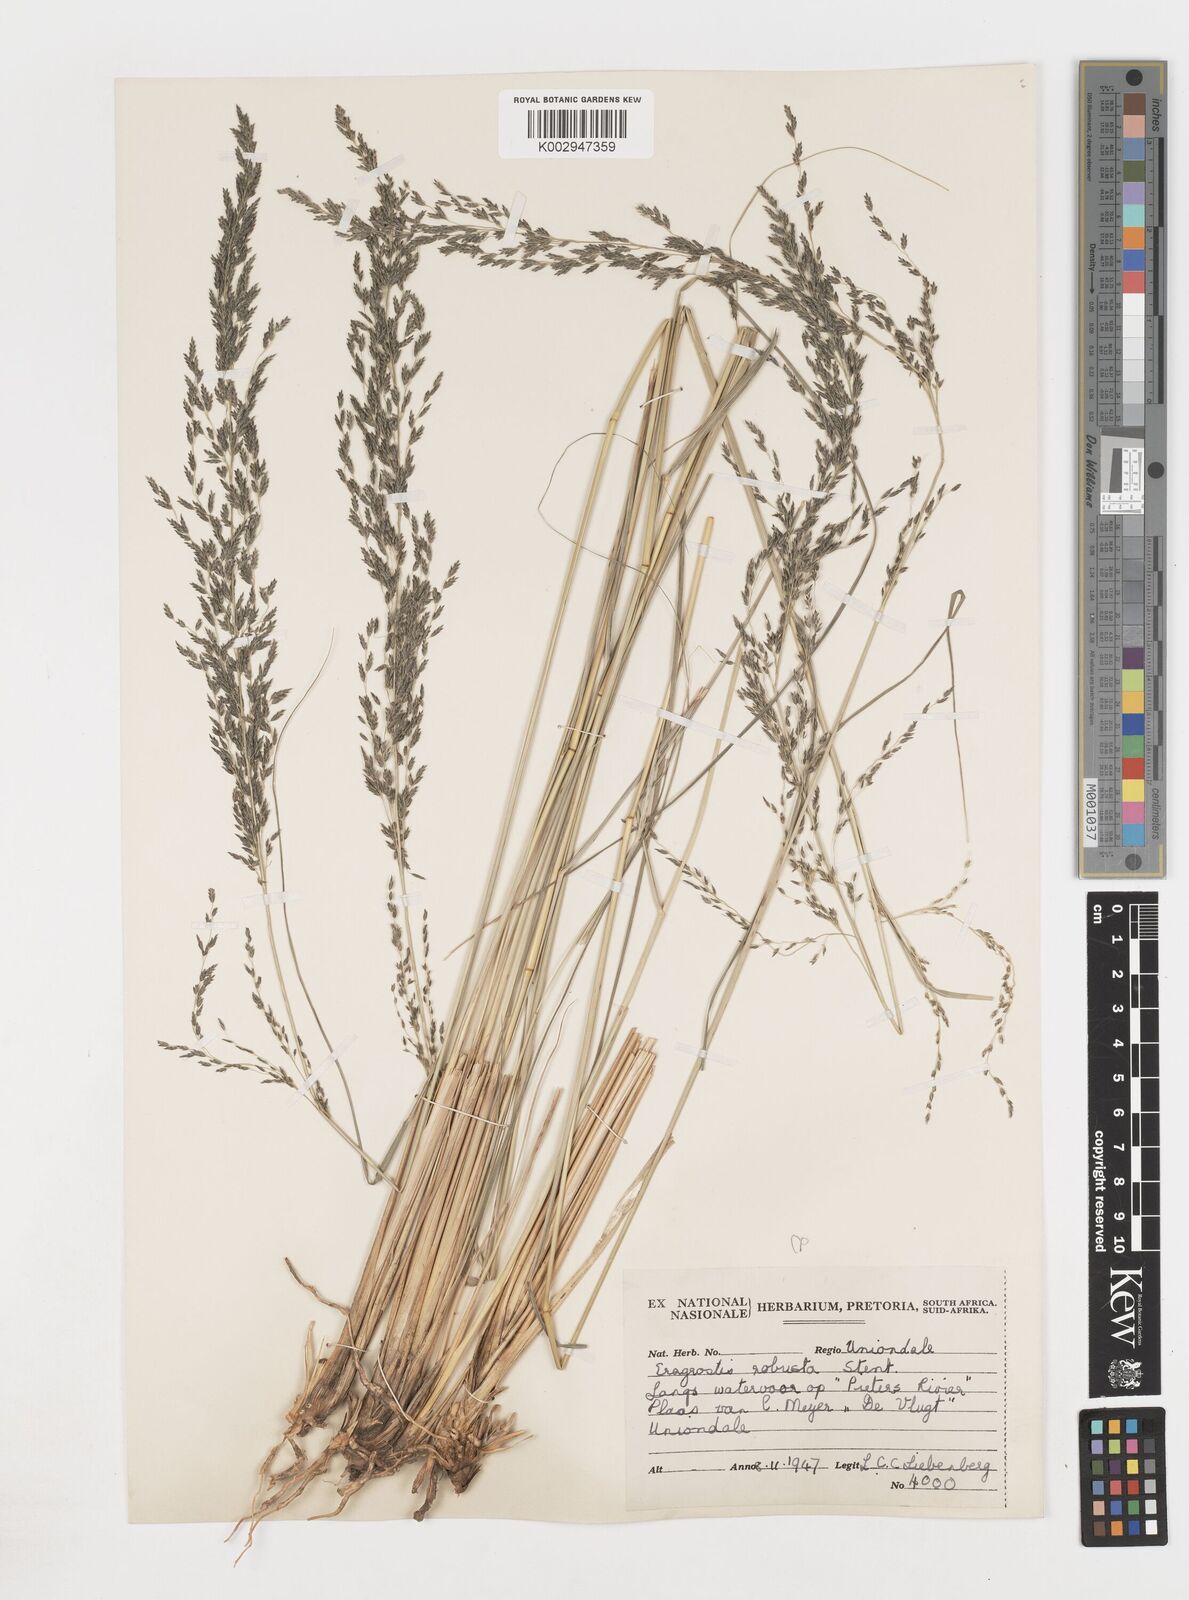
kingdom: Plantae
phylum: Tracheophyta
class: Liliopsida
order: Poales
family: Poaceae
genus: Eragrostis
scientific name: Eragrostis
